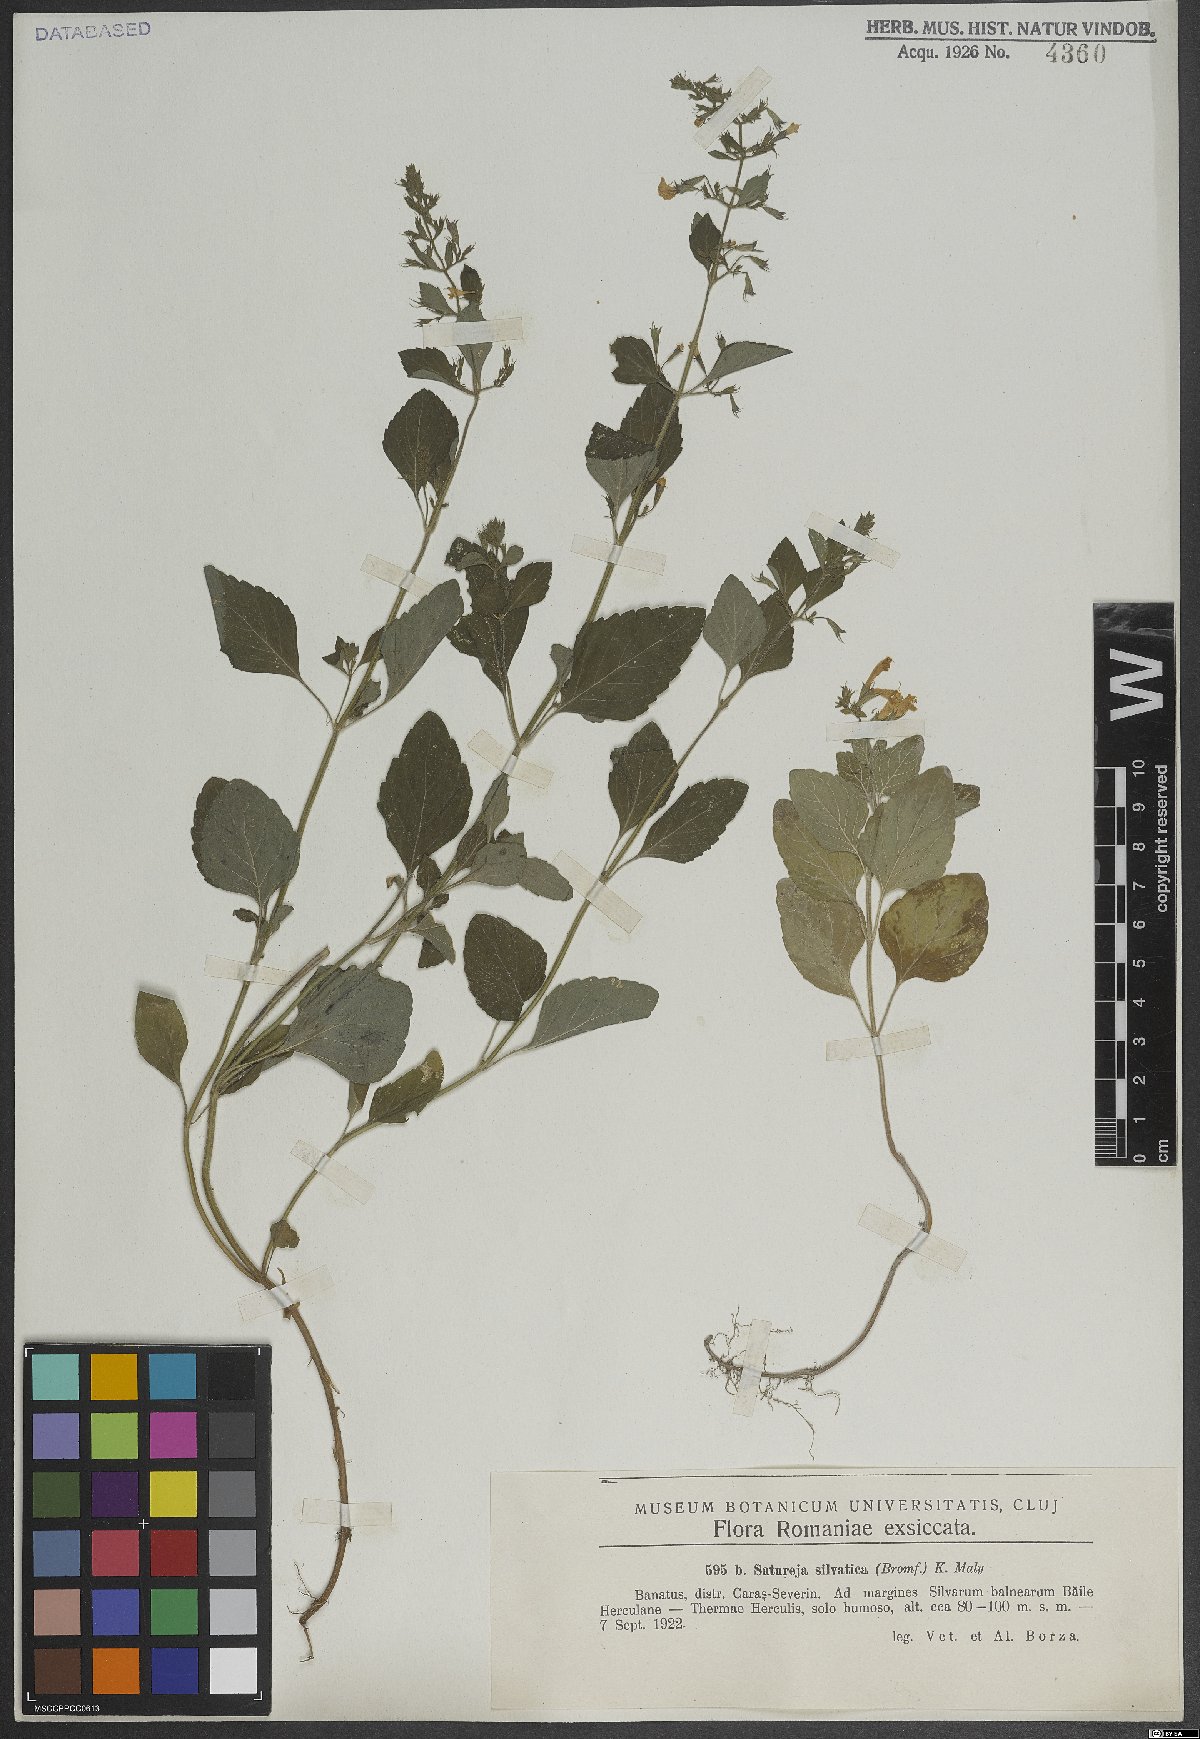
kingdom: Plantae
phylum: Tracheophyta
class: Magnoliopsida
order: Lamiales
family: Lamiaceae
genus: Clinopodium
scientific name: Clinopodium menthifolium
